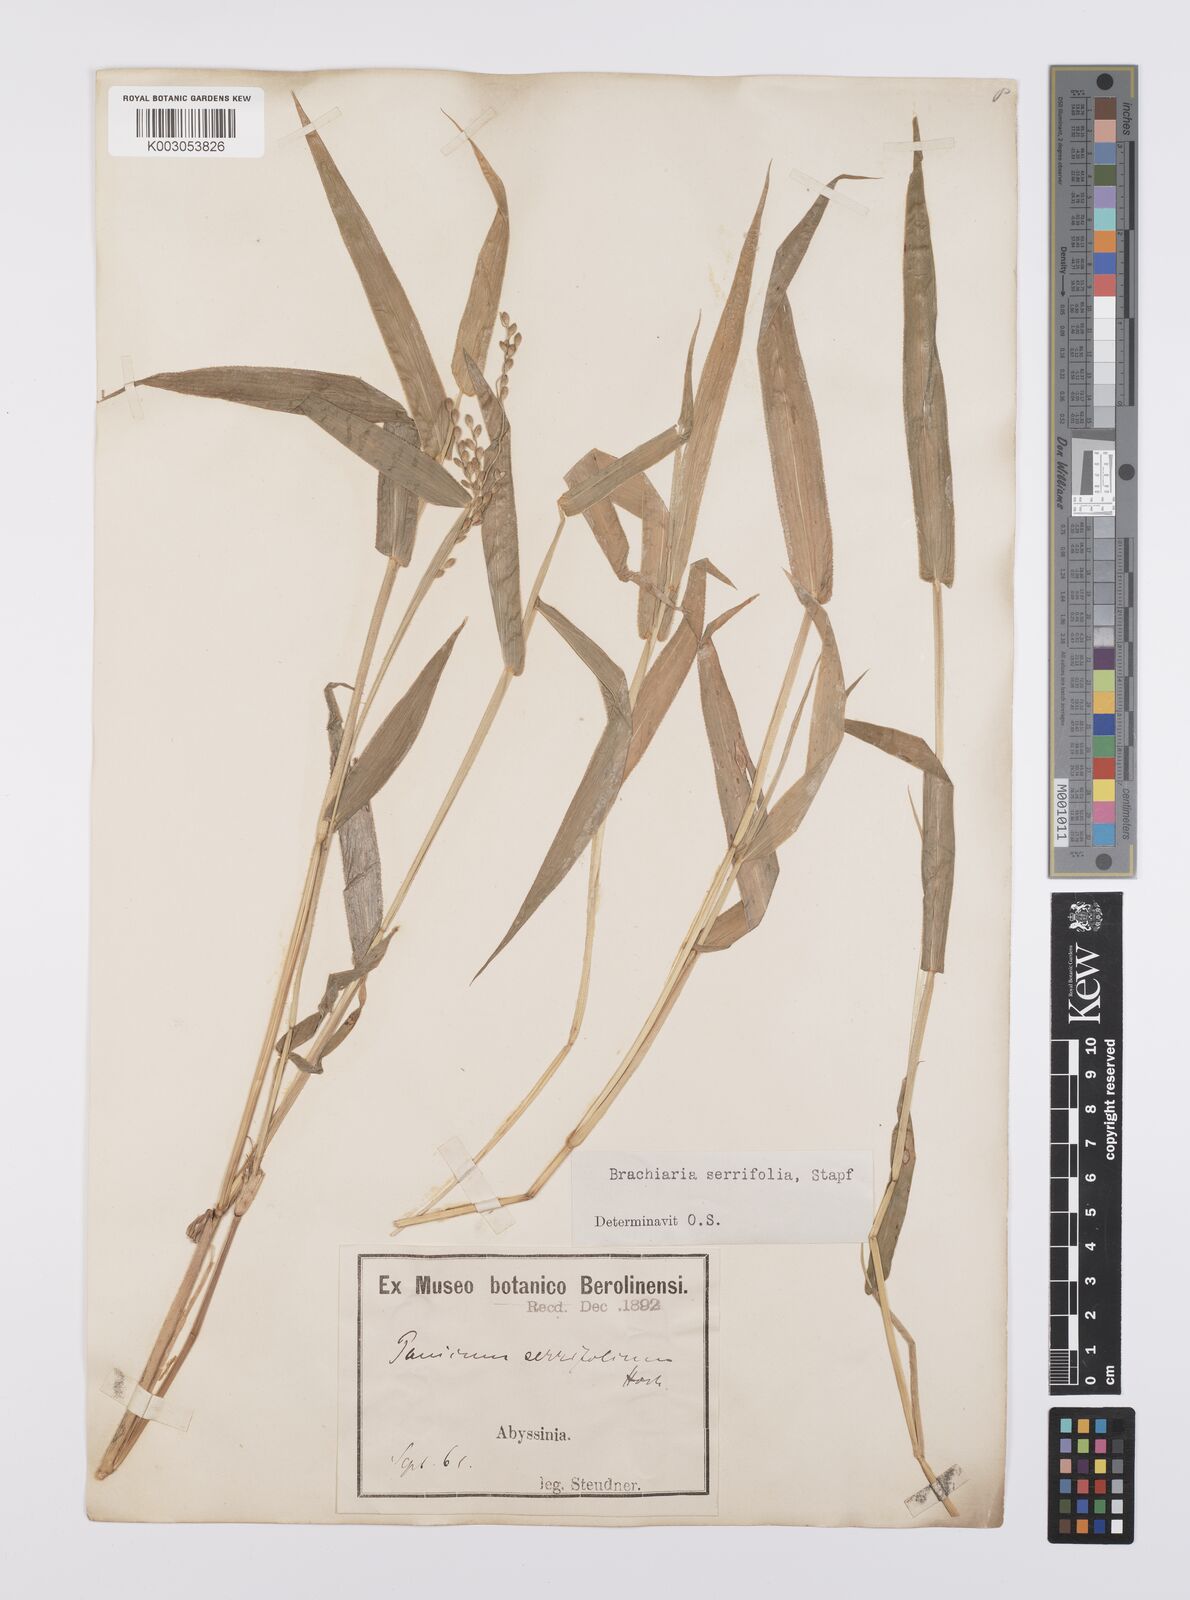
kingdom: Plantae
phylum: Tracheophyta
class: Liliopsida
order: Poales
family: Poaceae
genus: Urochloa
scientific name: Urochloa serrifolia
